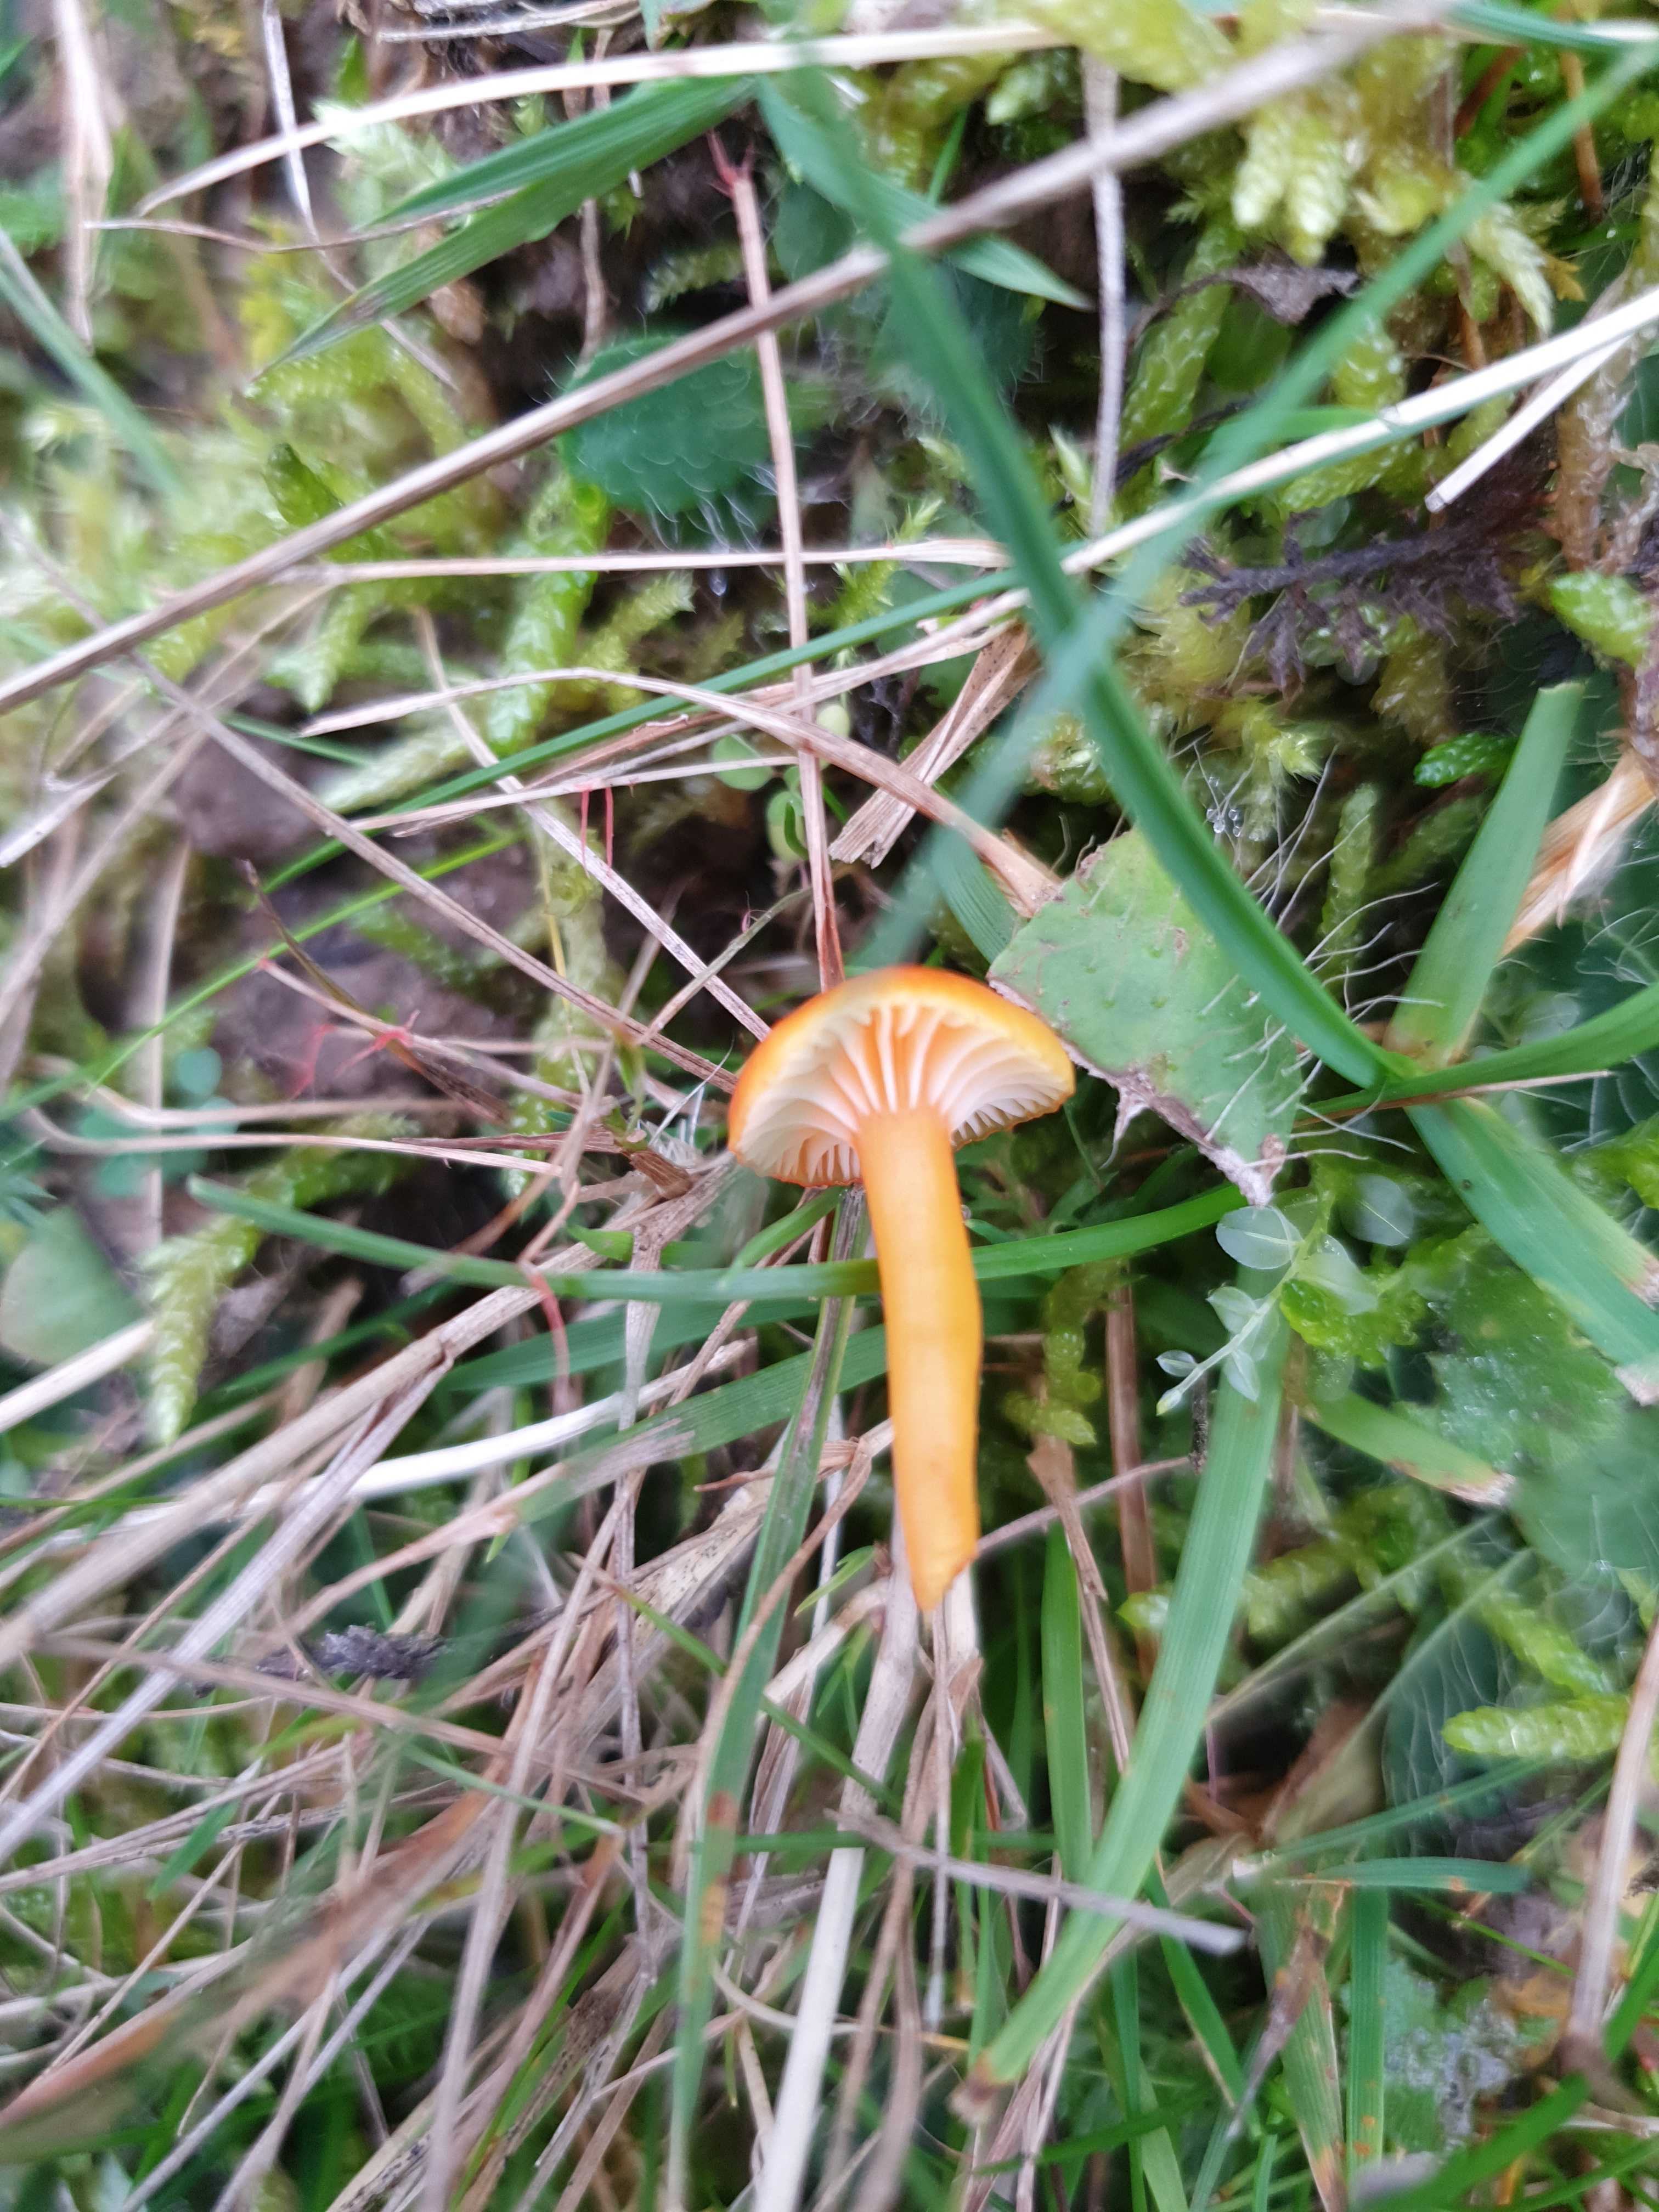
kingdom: Fungi
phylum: Basidiomycota
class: Agaricomycetes
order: Agaricales
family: Hygrophoraceae
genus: Hygrocybe
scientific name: Hygrocybe insipida
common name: liden vokshat
